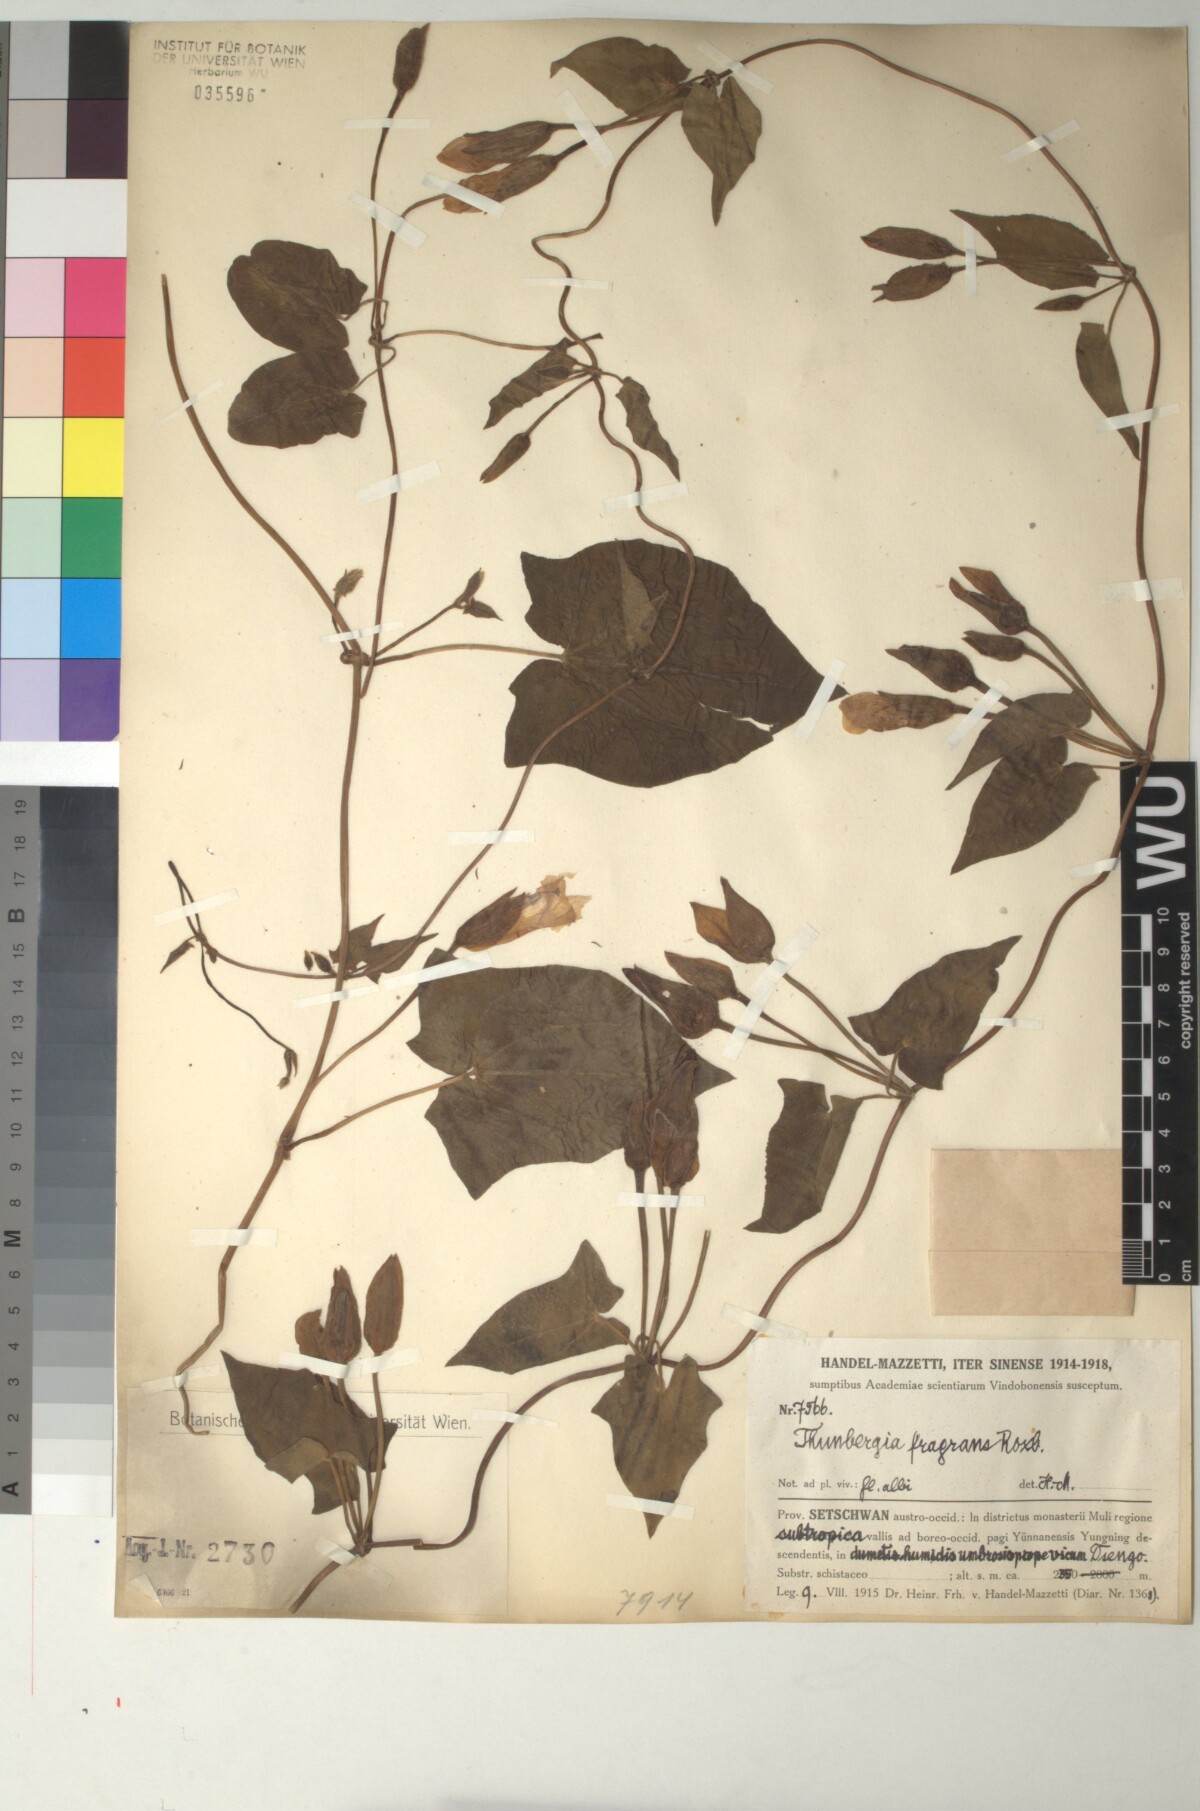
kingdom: Plantae
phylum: Tracheophyta
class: Magnoliopsida
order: Lamiales
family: Acanthaceae
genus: Thunbergia
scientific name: Thunbergia fragrans
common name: Whitelady
